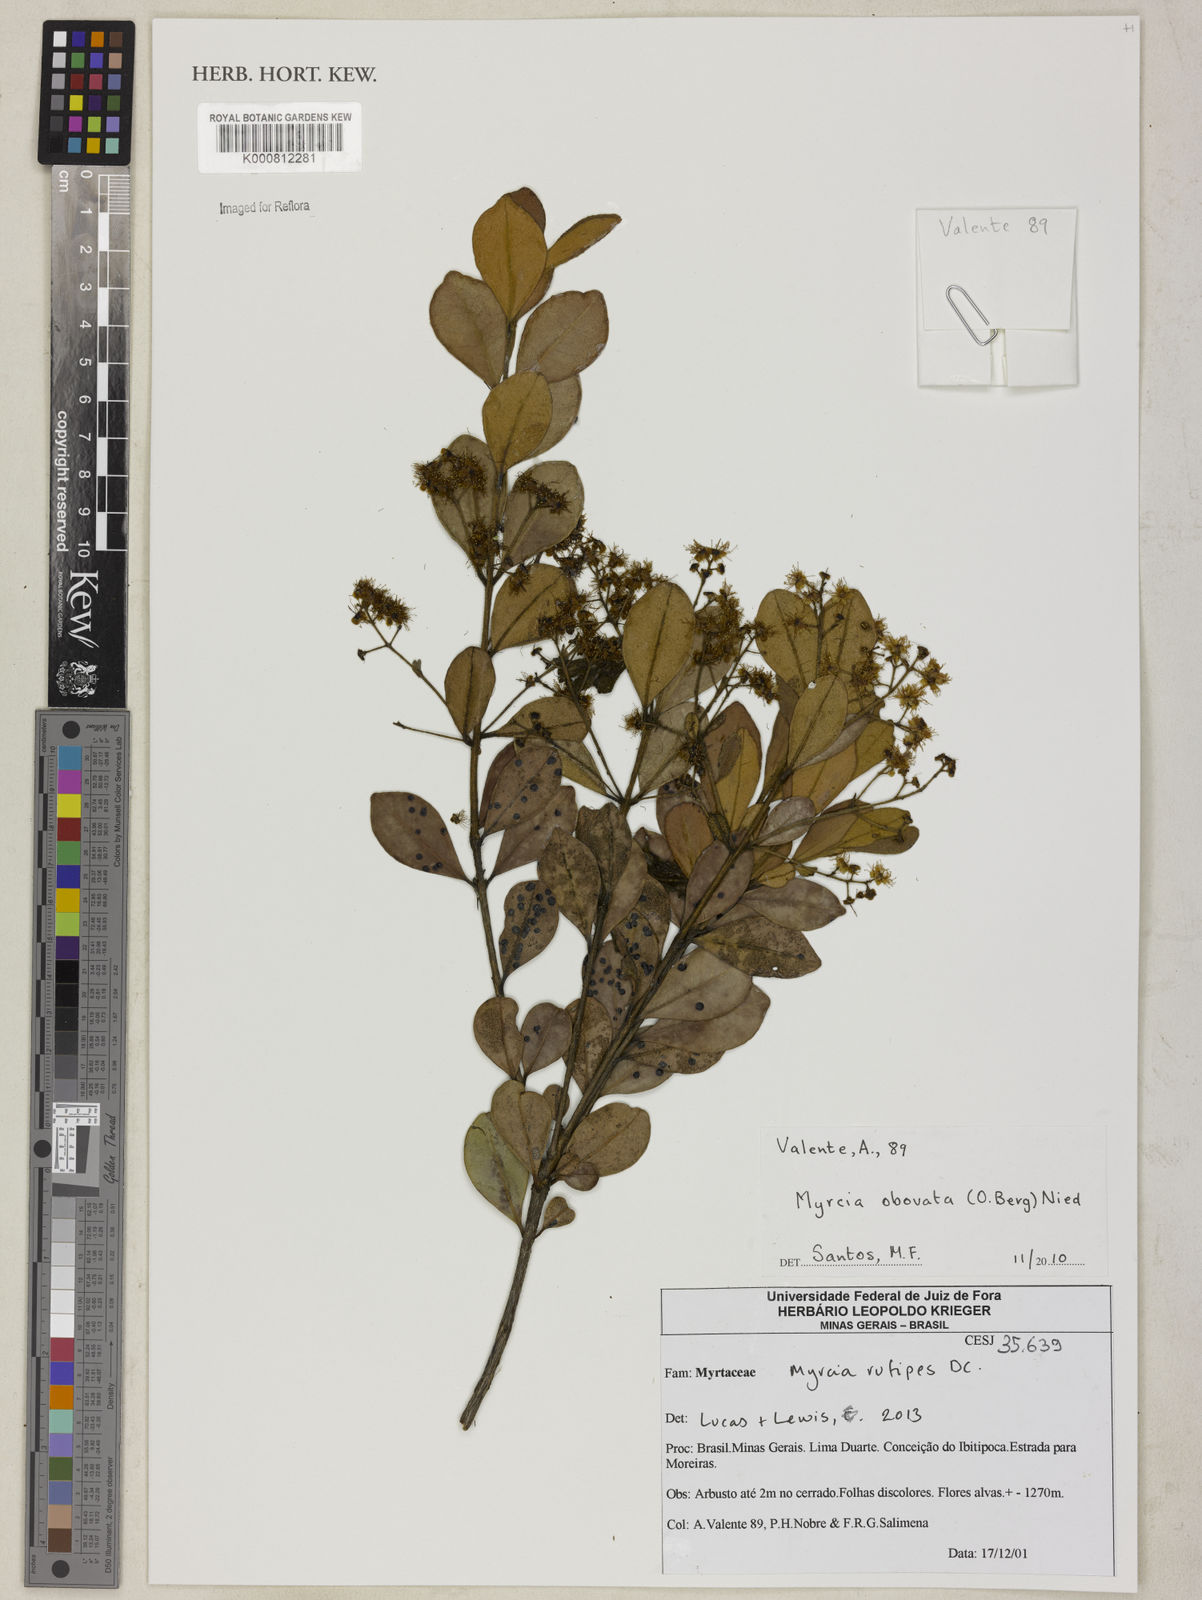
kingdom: Plantae
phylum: Tracheophyta
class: Magnoliopsida
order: Myrtales
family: Myrtaceae
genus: Myrcia
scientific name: Myrcia subverticillaris
